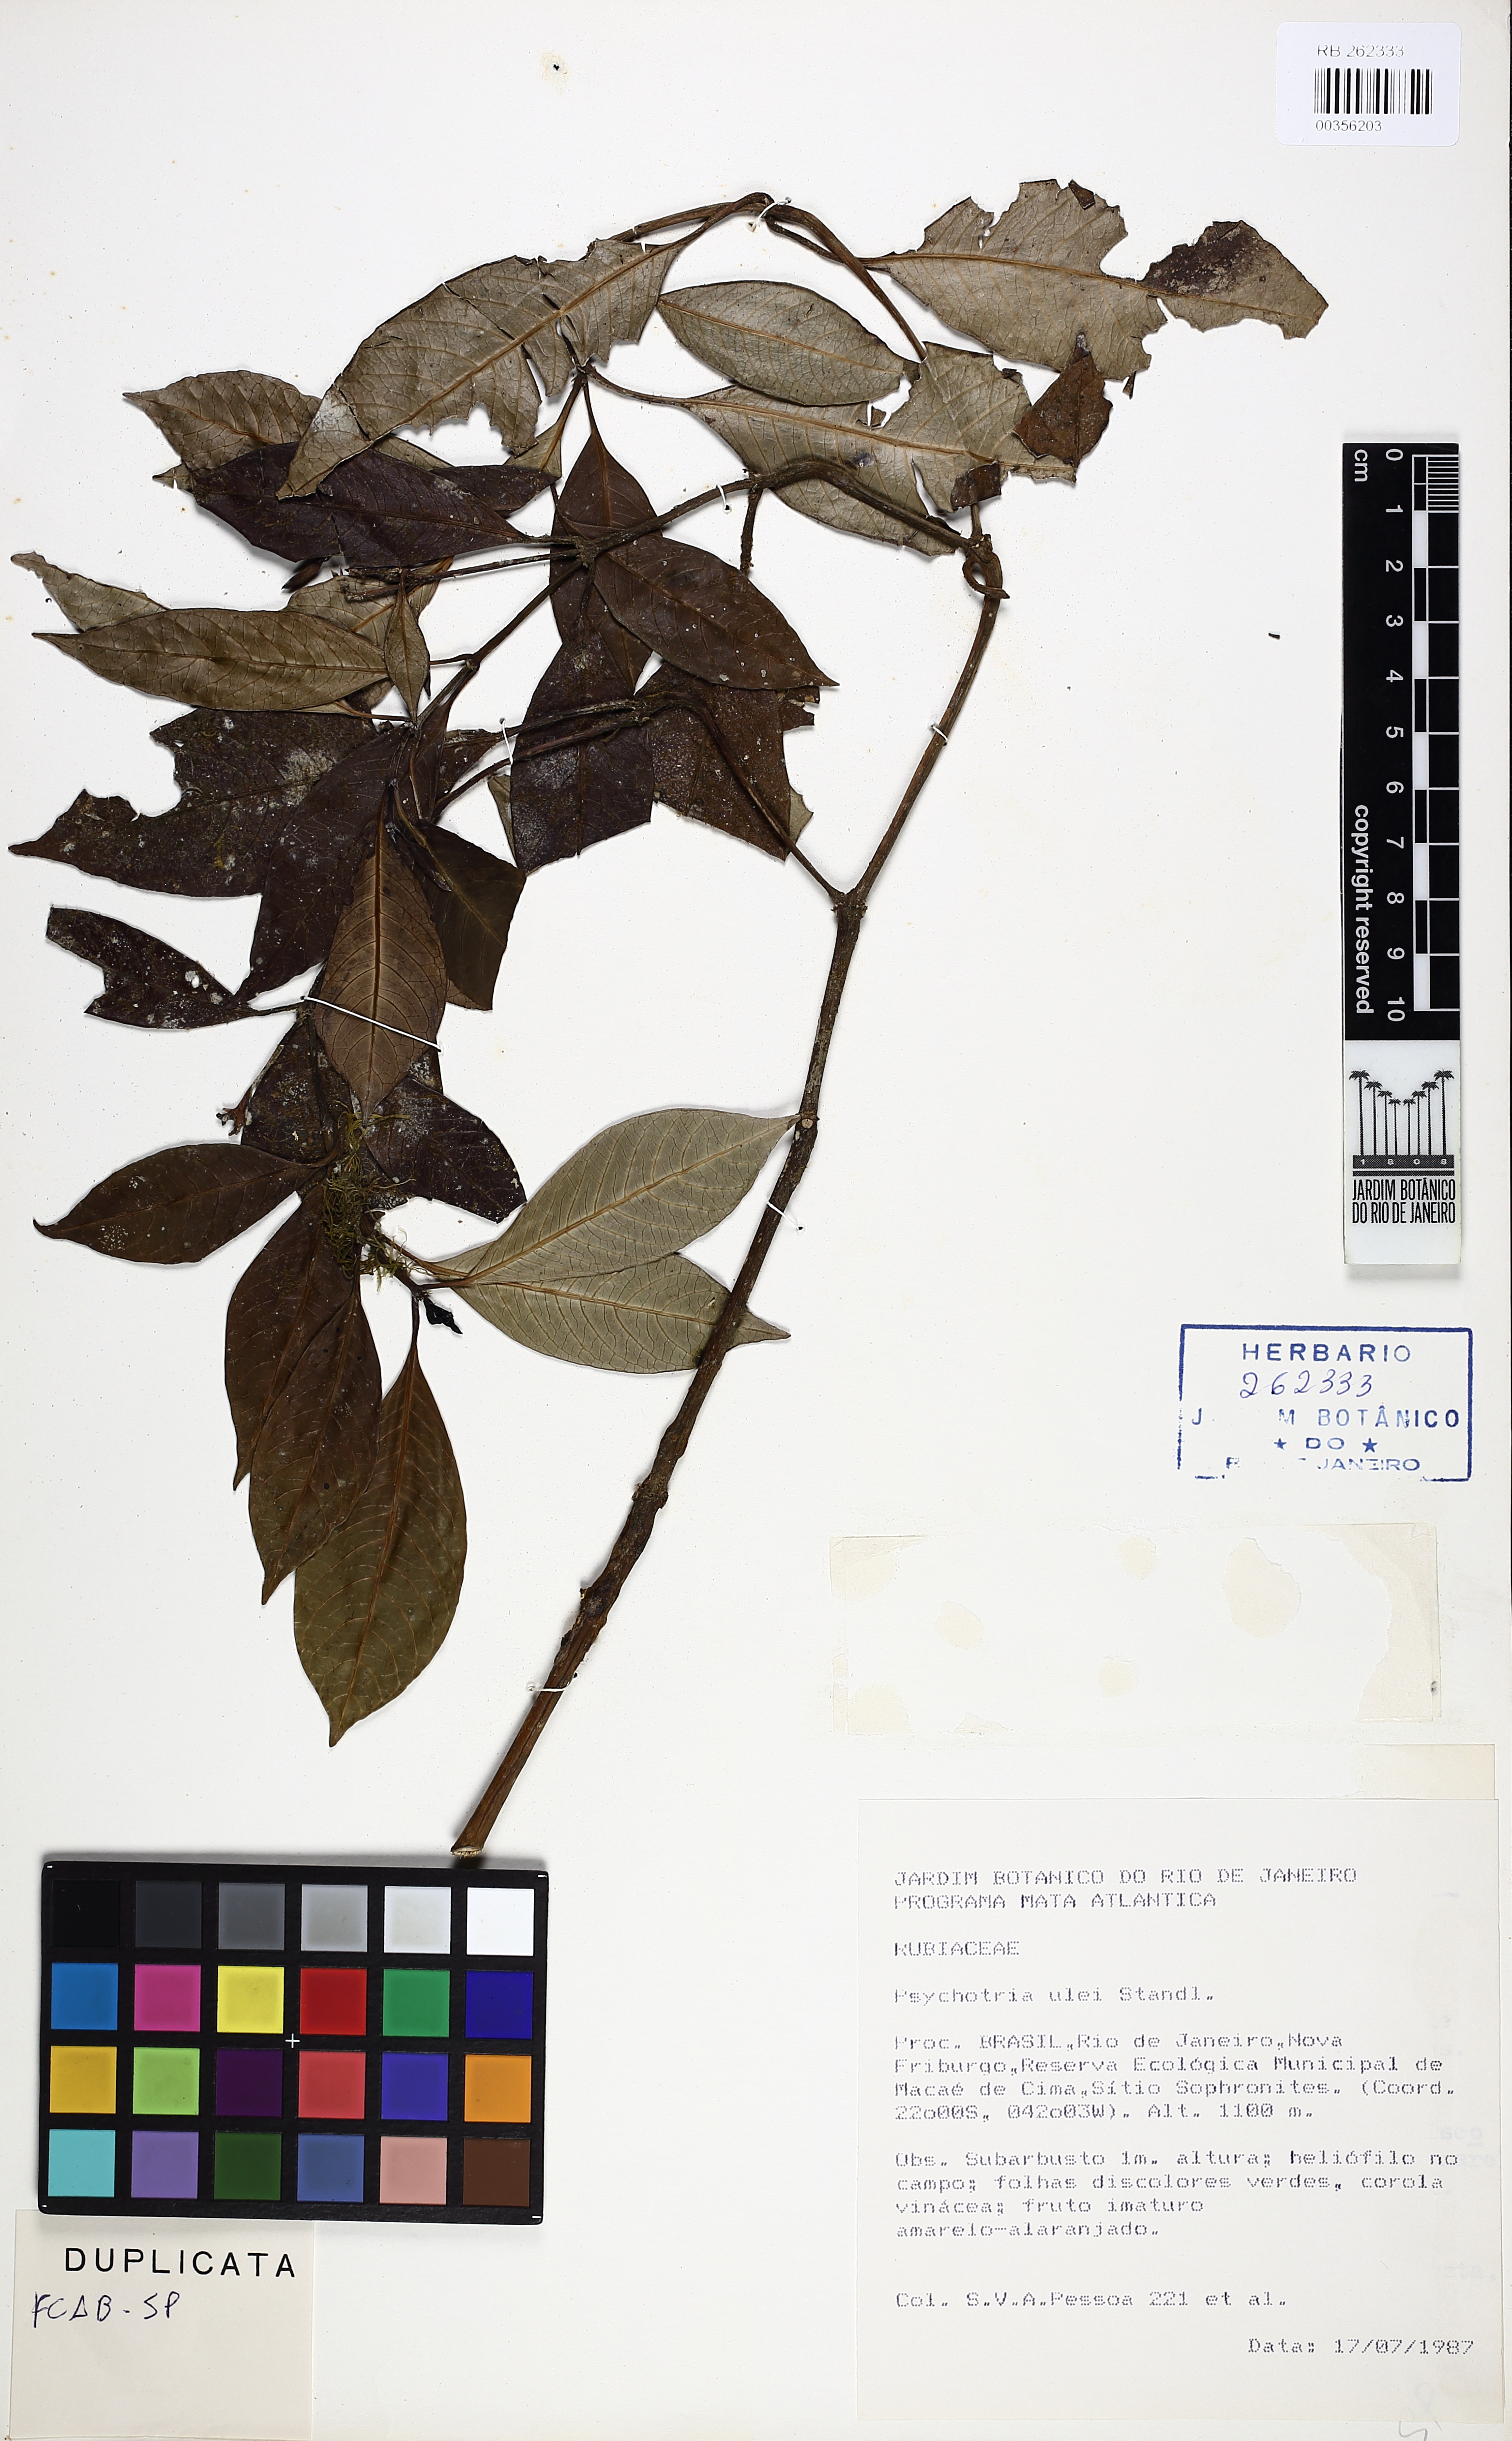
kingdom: Plantae
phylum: Tracheophyta
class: Magnoliopsida
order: Gentianales
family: Rubiaceae
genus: Psychotria
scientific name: Psychotria ulei
